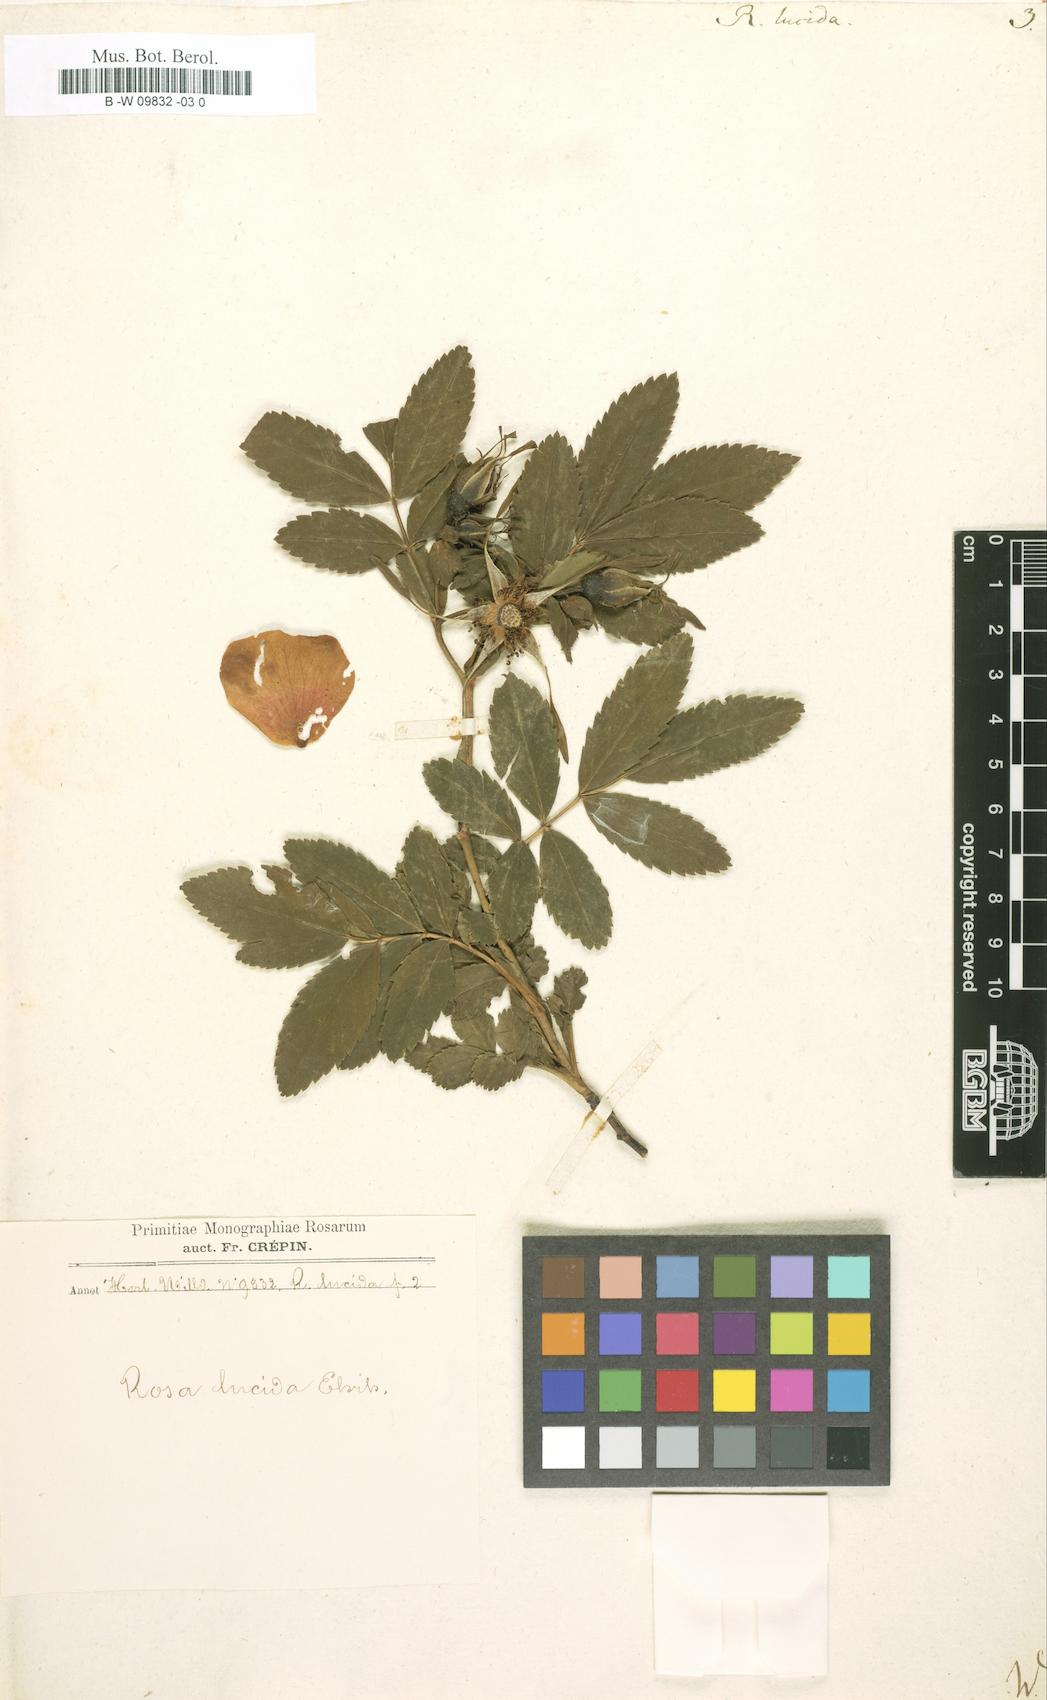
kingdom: Plantae
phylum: Tracheophyta
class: Magnoliopsida
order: Rosales
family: Rosaceae
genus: Rosa
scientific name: Rosa
